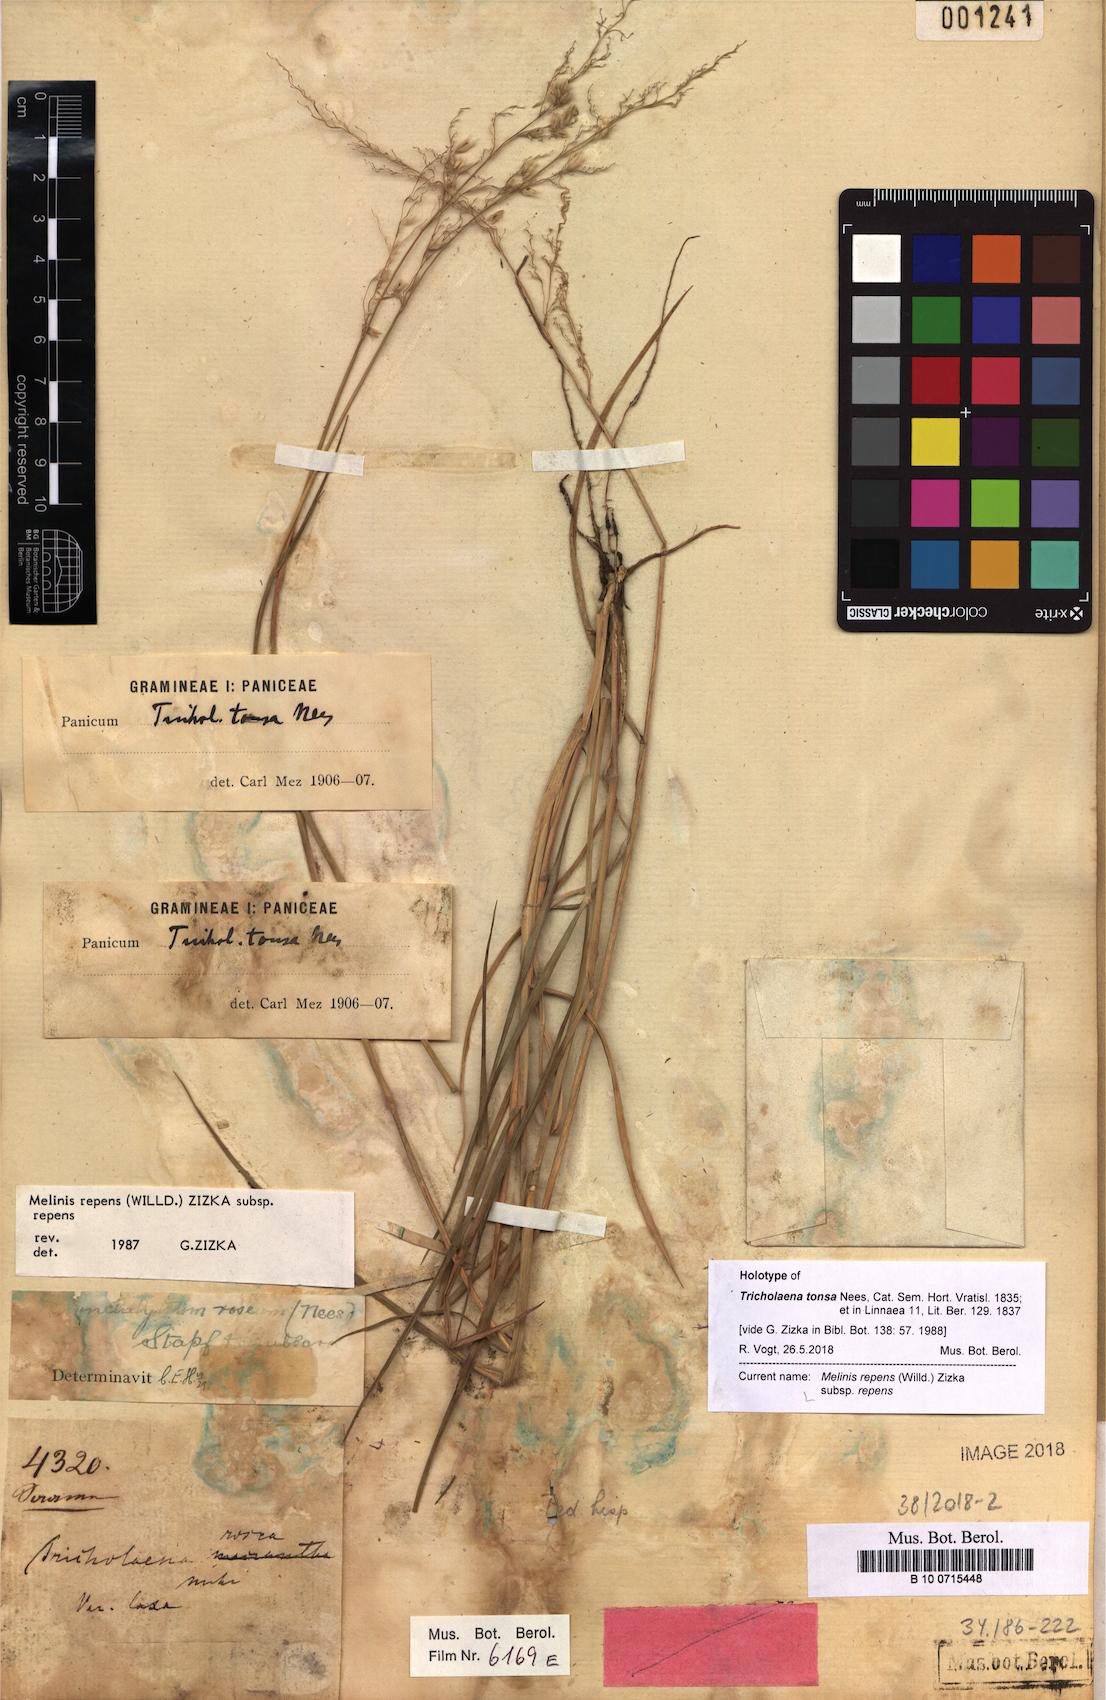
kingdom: Plantae
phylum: Tracheophyta
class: Liliopsida
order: Poales
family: Poaceae
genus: Melinis
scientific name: Melinis repens
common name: Rose natal grass
